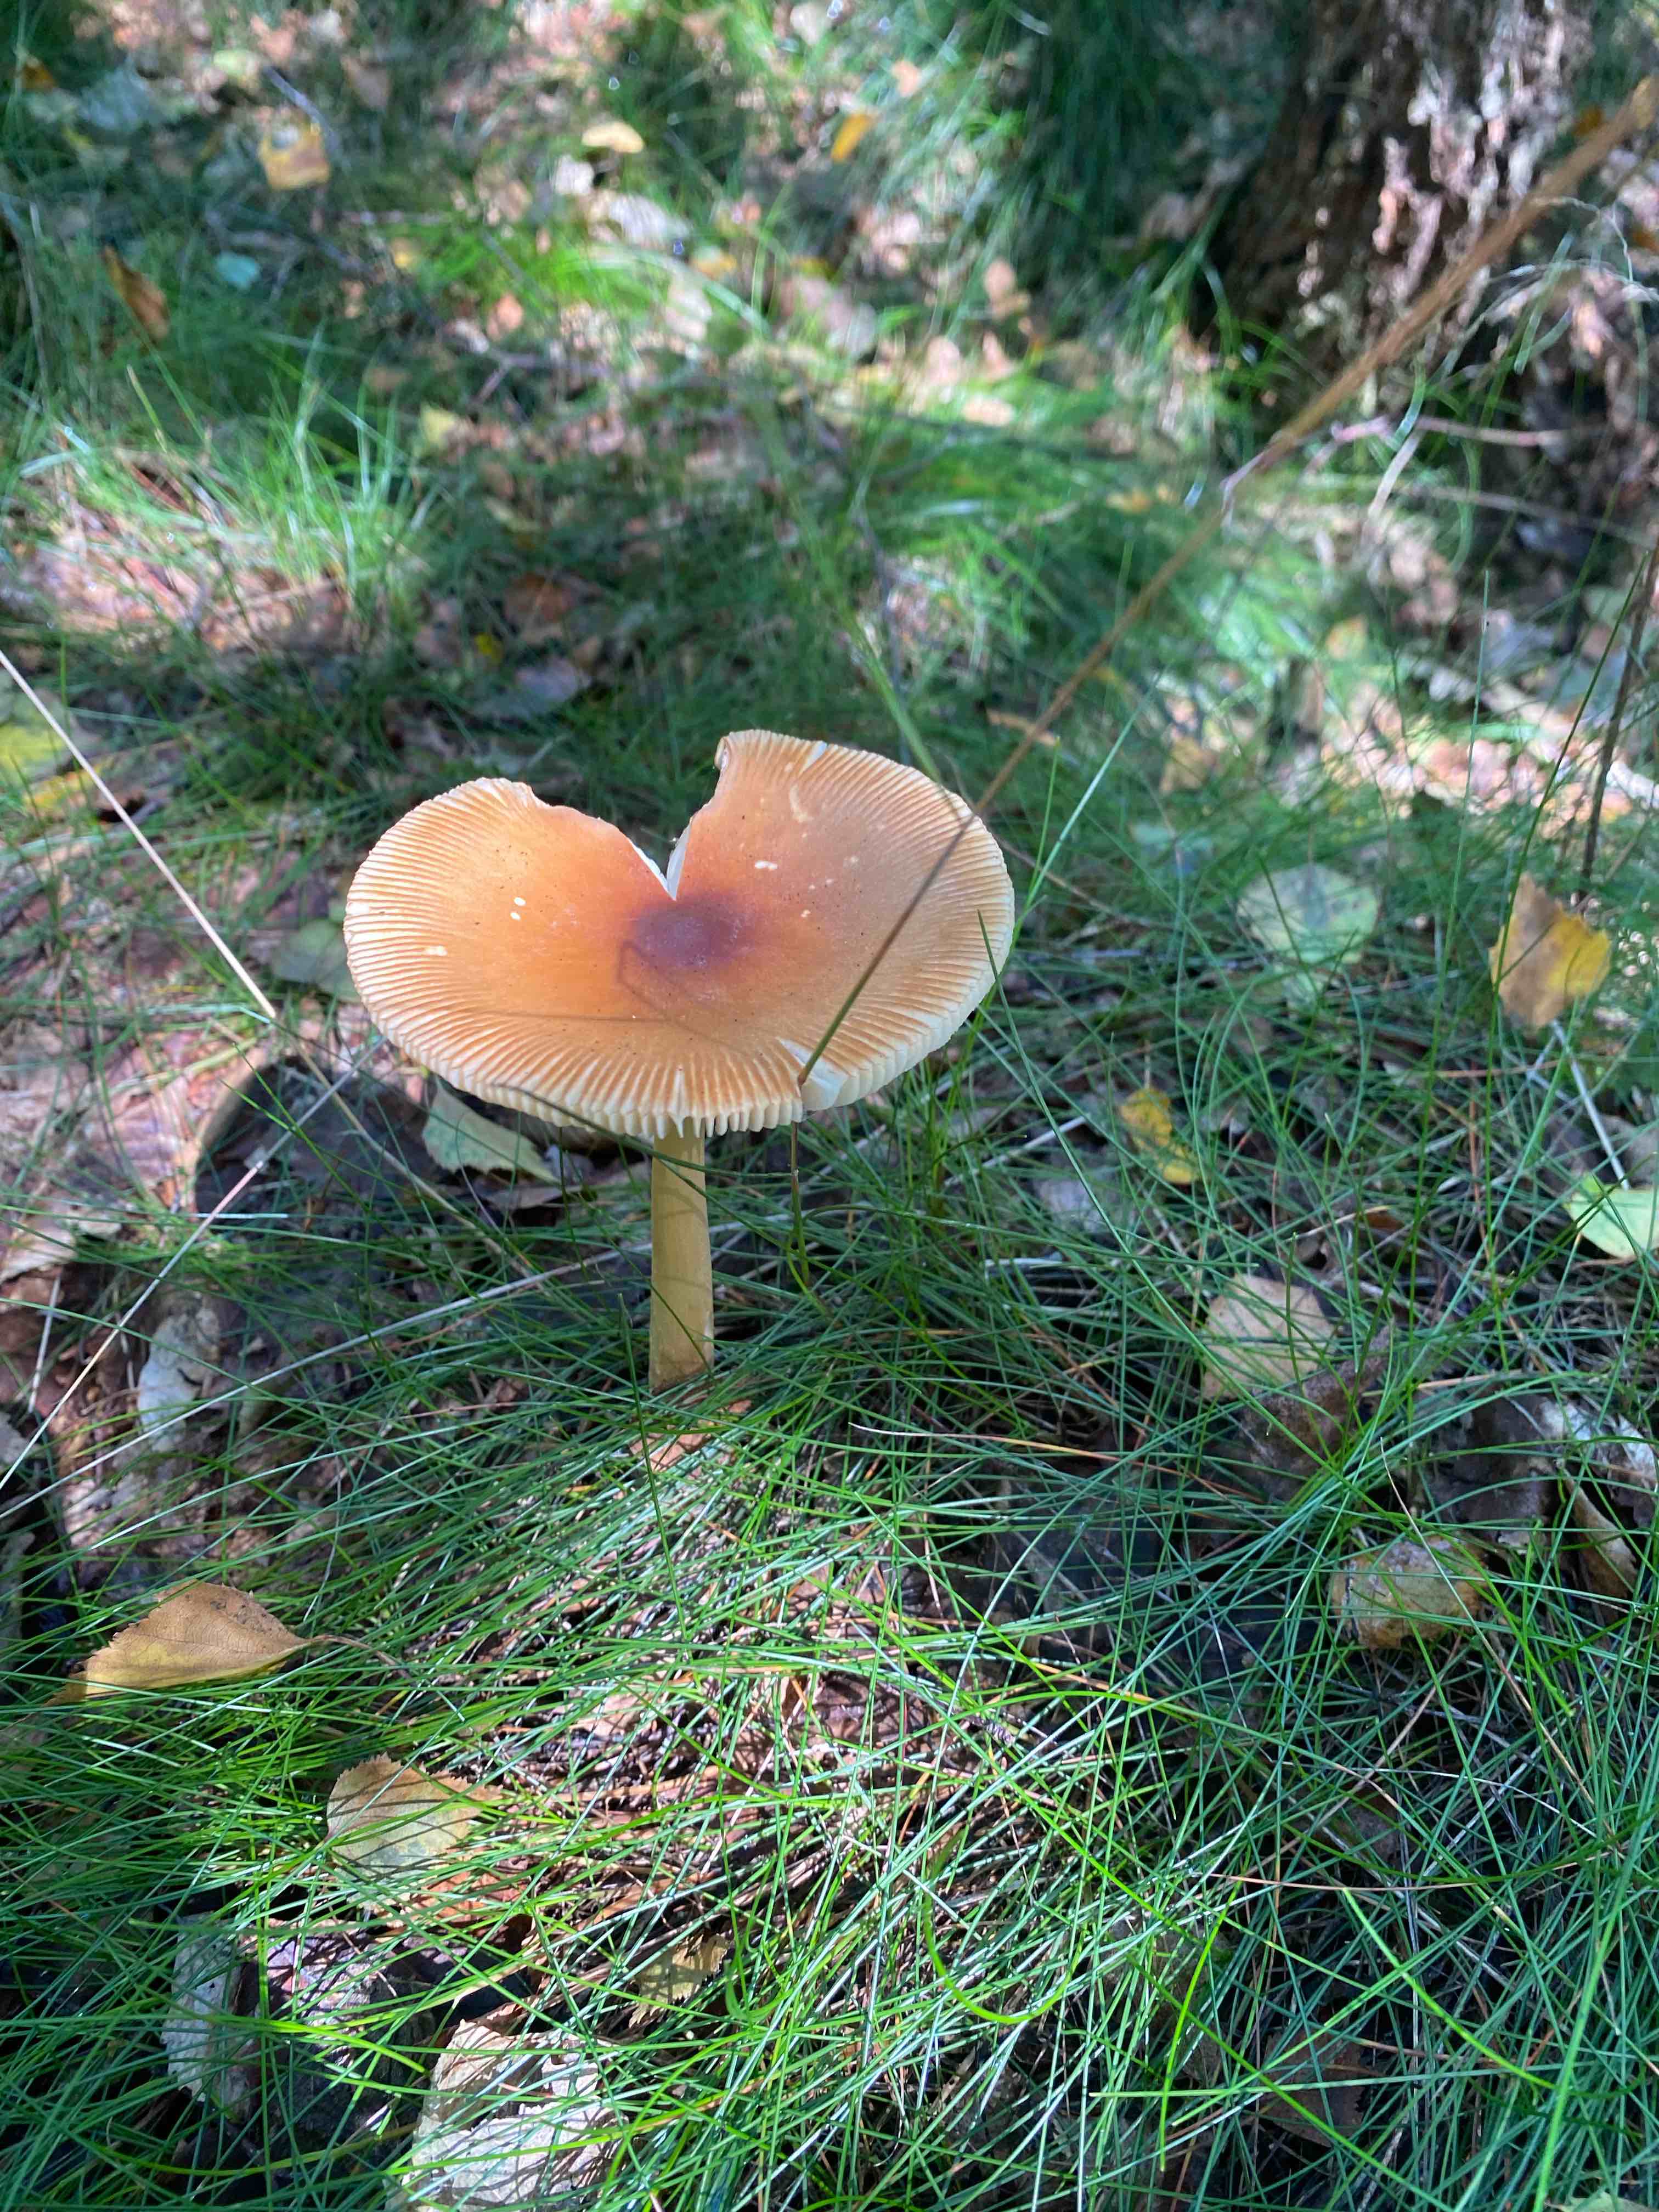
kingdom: Fungi
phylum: Basidiomycota
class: Agaricomycetes
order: Agaricales
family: Amanitaceae
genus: Amanita
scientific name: Amanita fulva
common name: brun kam-fluesvamp
